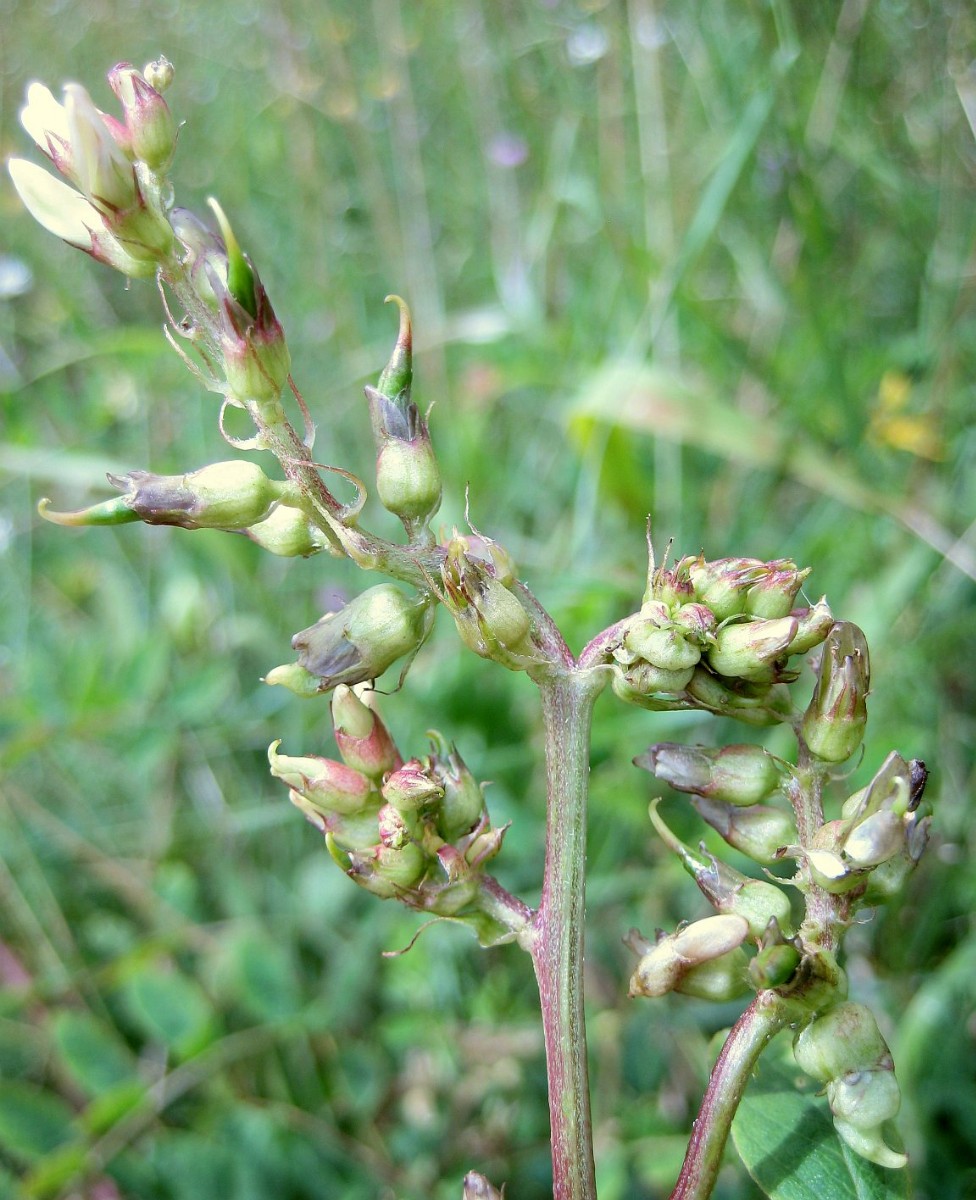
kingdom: Fungi
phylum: Basidiomycota
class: Ustilaginomycetes
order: Urocystidales
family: Glomosporiaceae
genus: Thecaphora
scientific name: Thecaphora affinis
